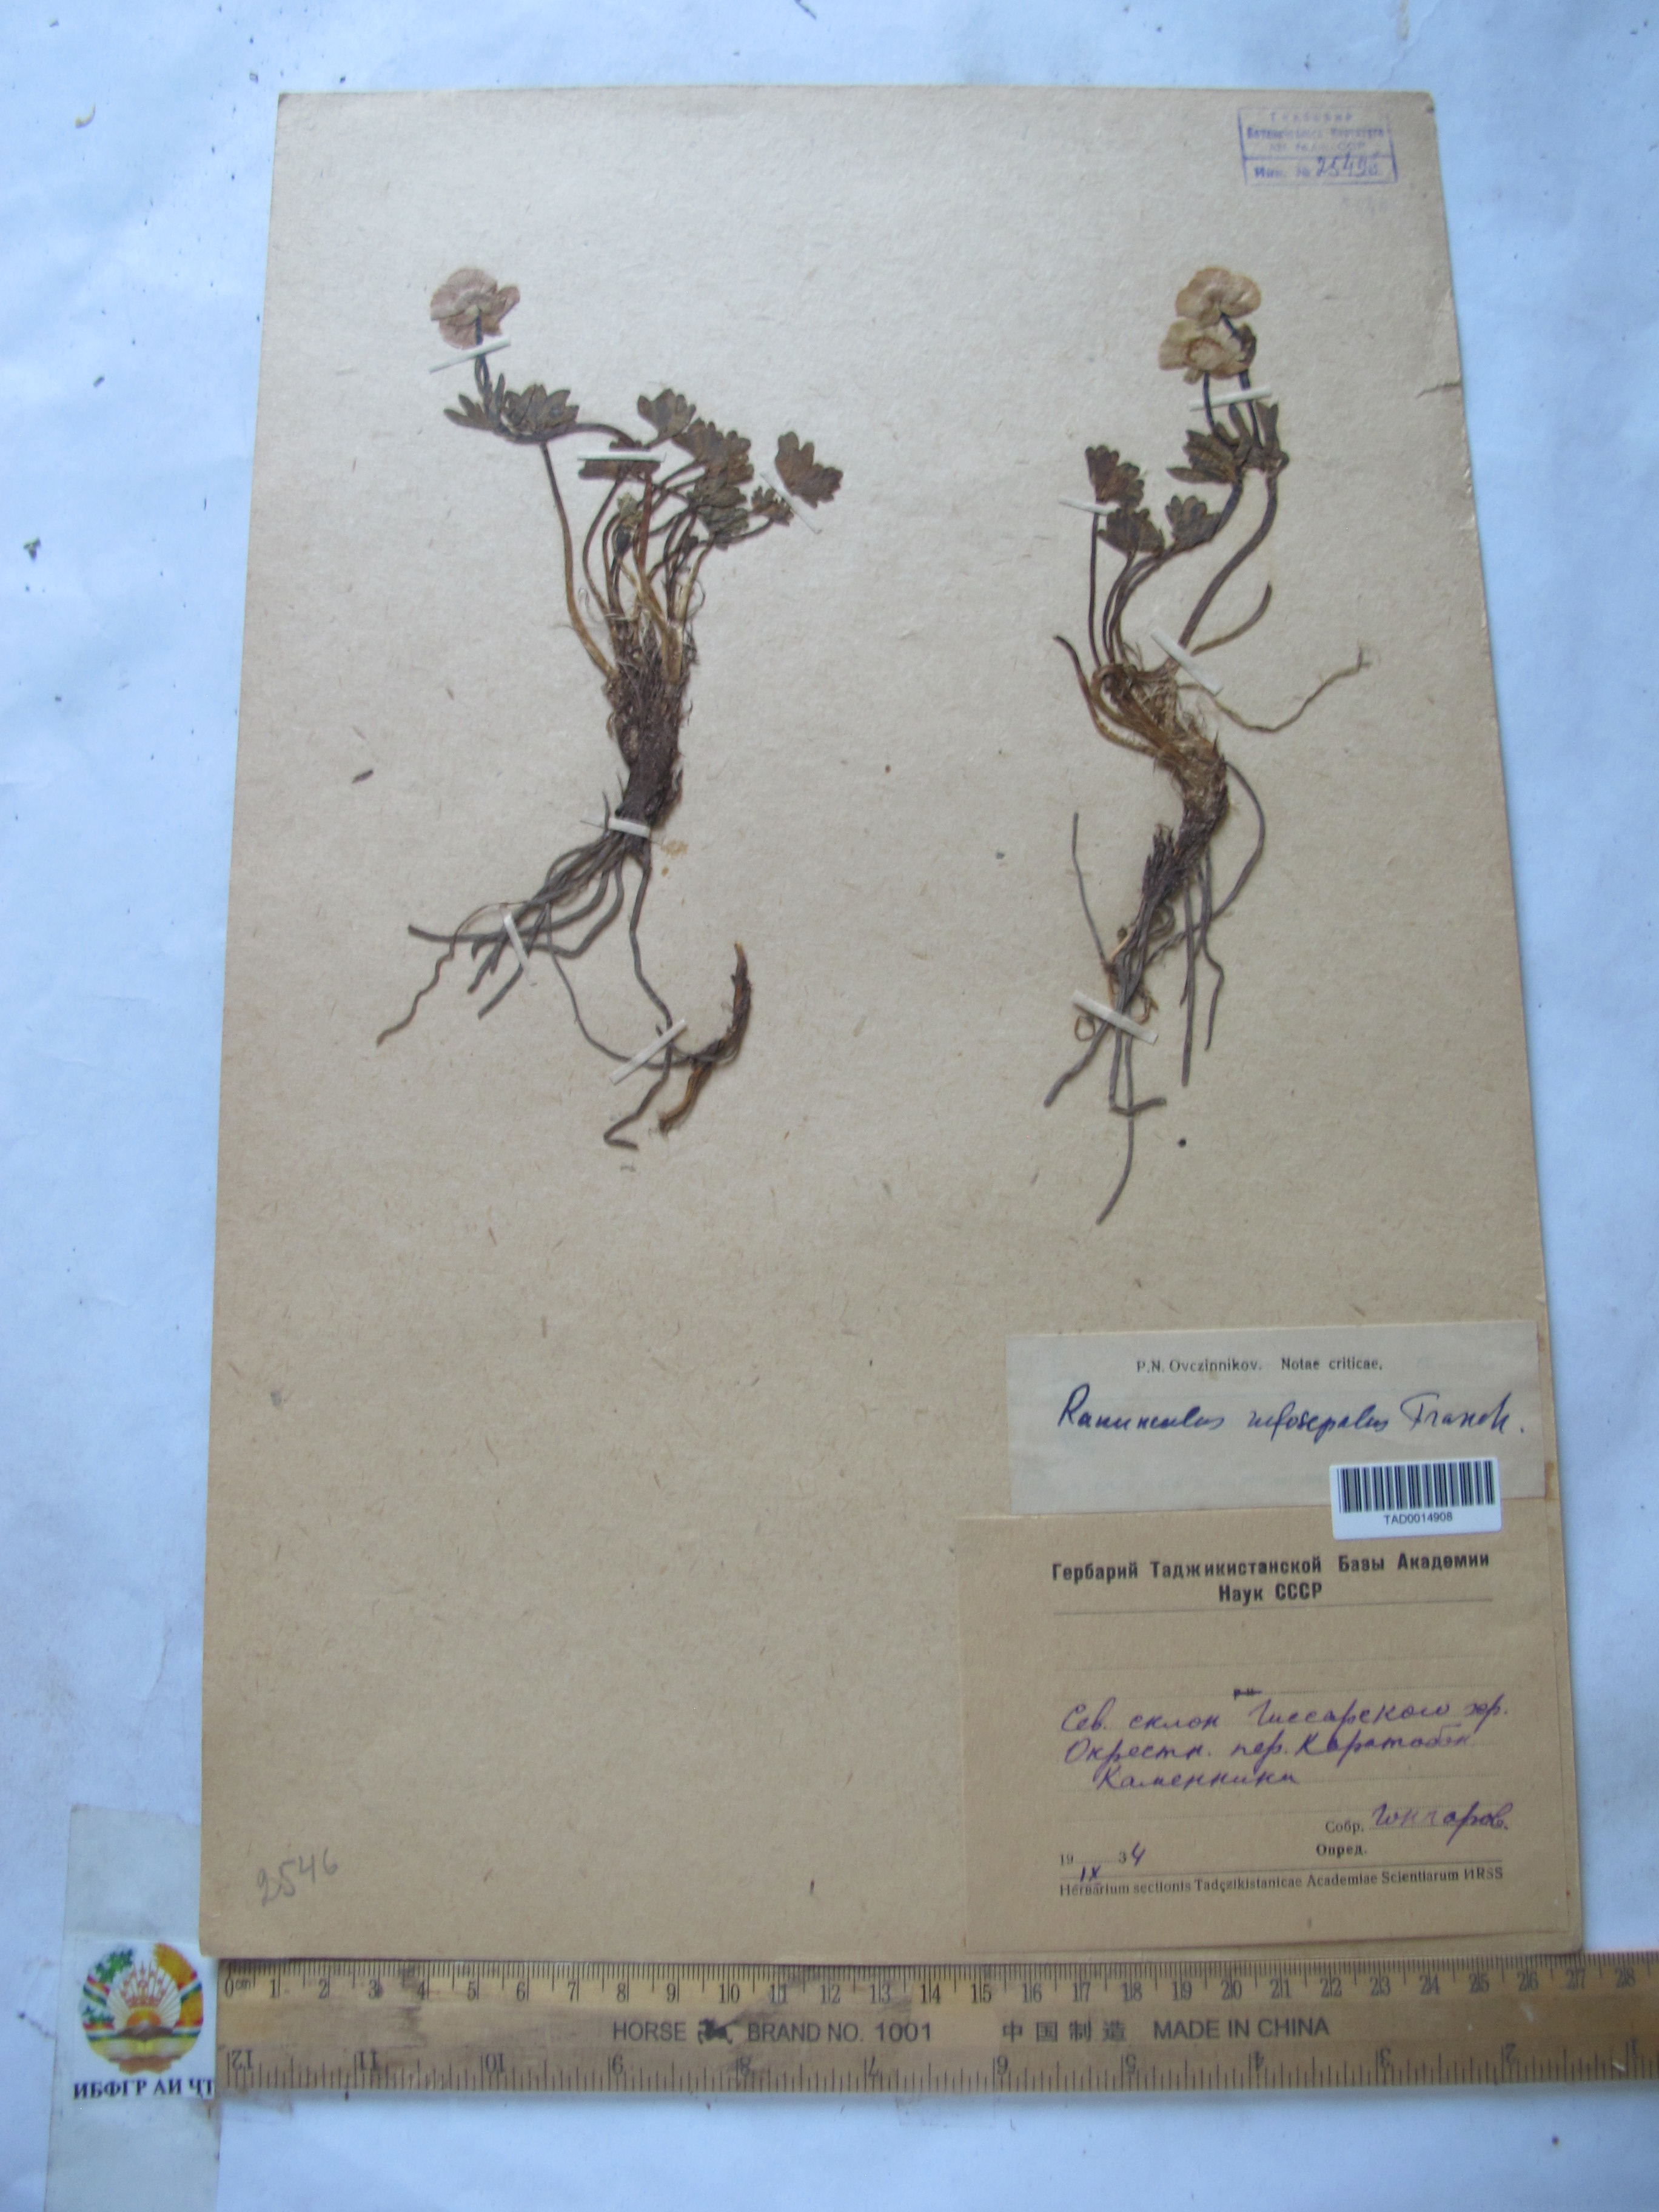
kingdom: Plantae
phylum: Tracheophyta
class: Magnoliopsida
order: Ranunculales
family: Ranunculaceae
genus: Ranunculus
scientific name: Ranunculus rufosepalus
